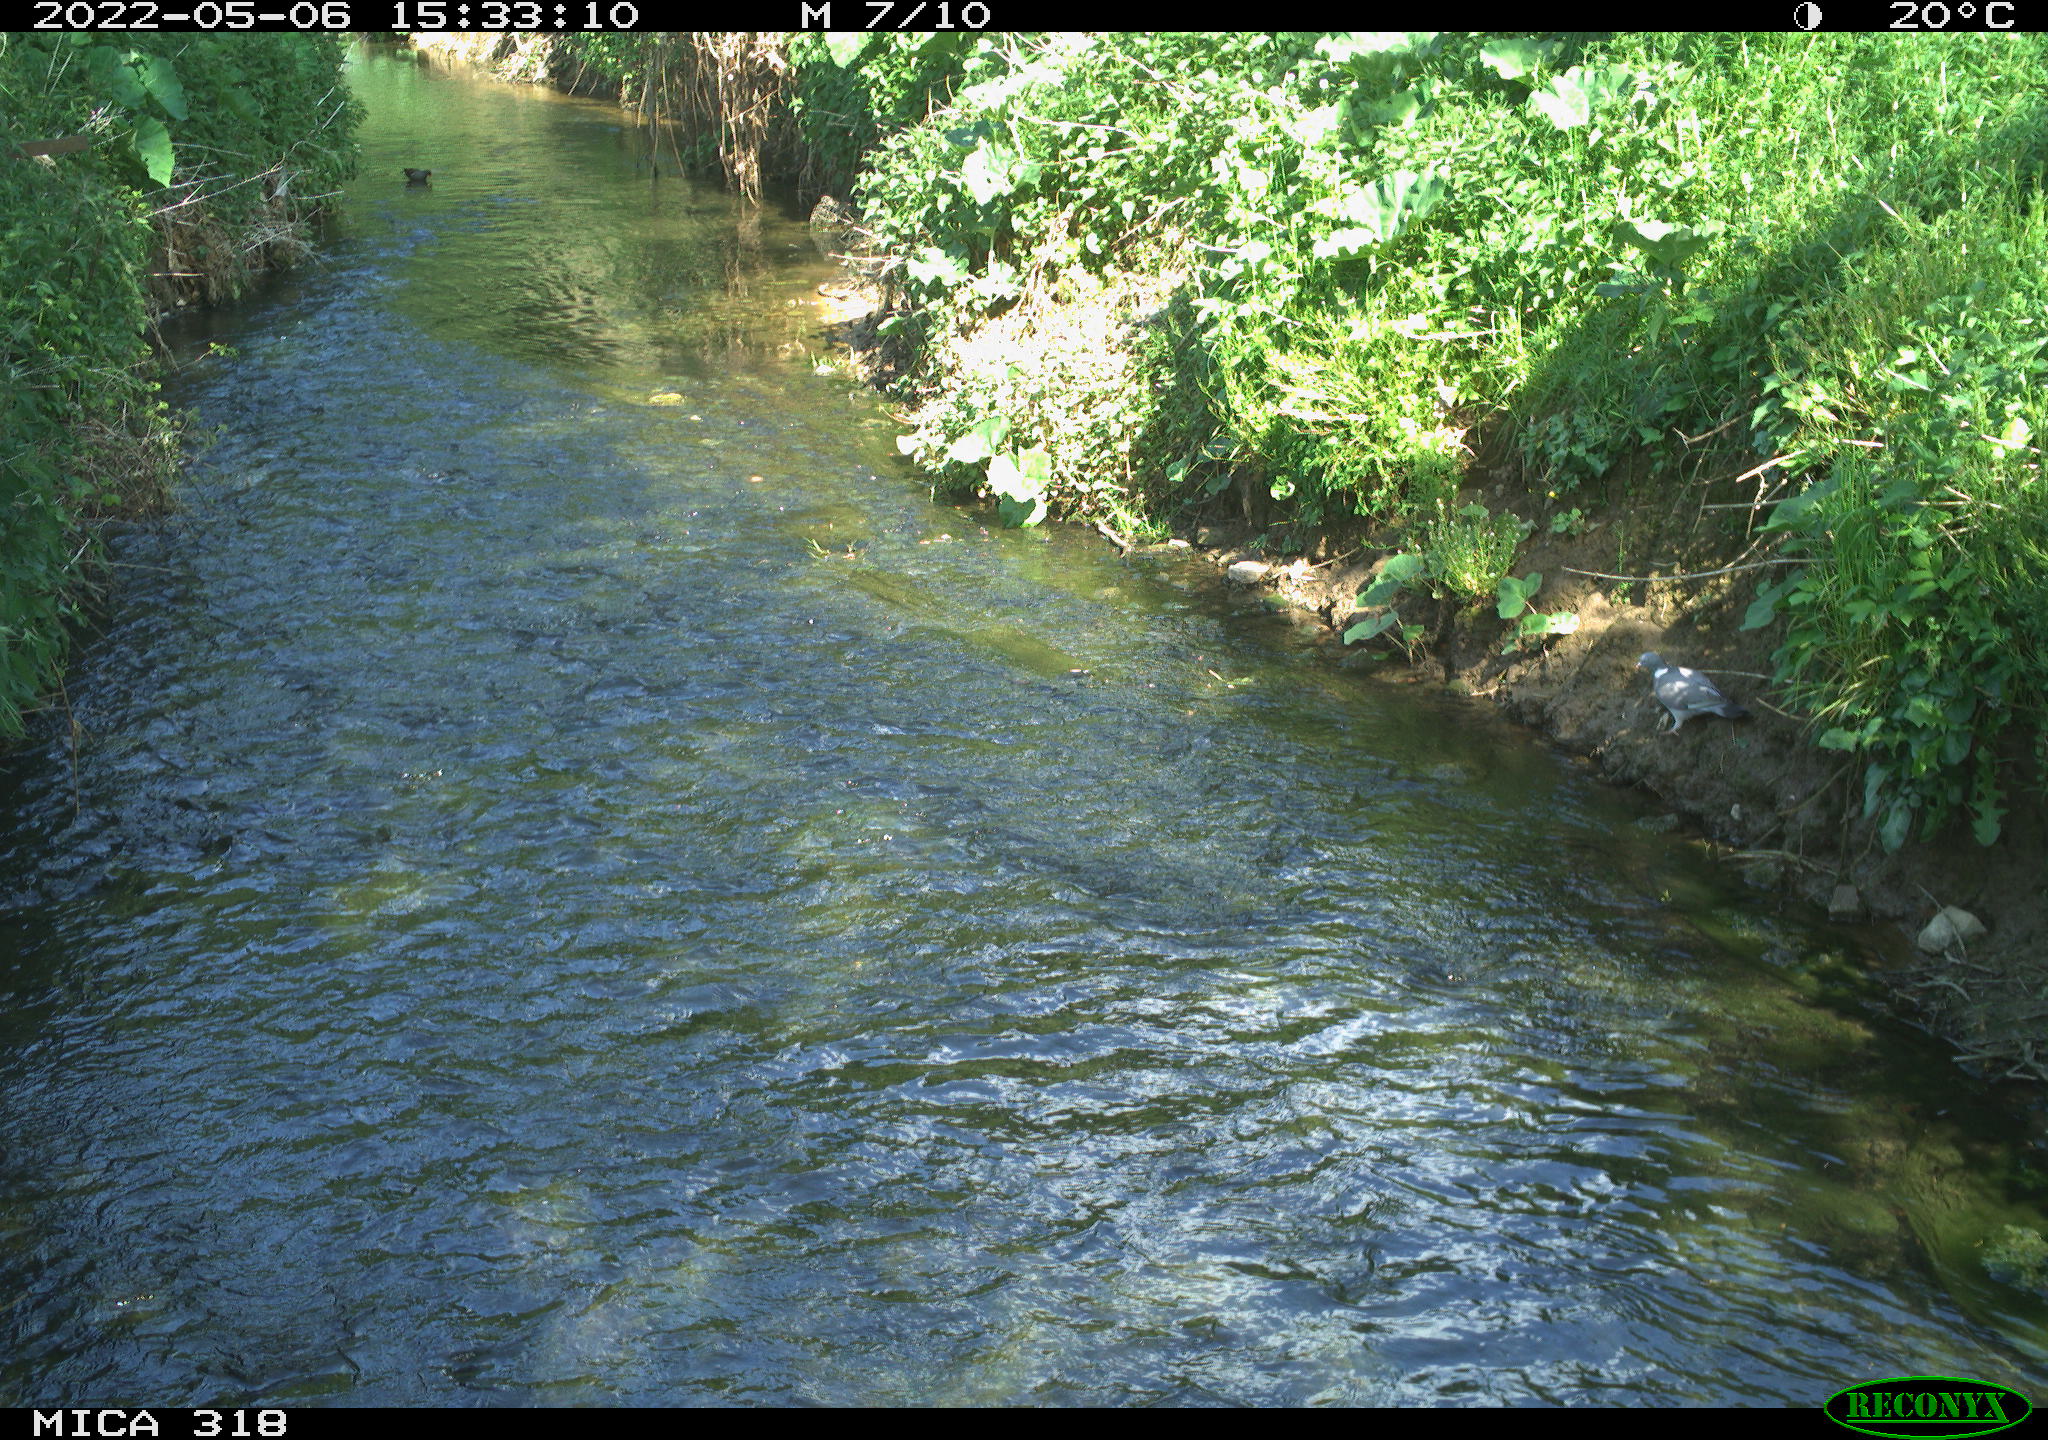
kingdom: Animalia
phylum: Chordata
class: Aves
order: Columbiformes
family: Columbidae
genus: Columba
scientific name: Columba palumbus
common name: Common wood pigeon
